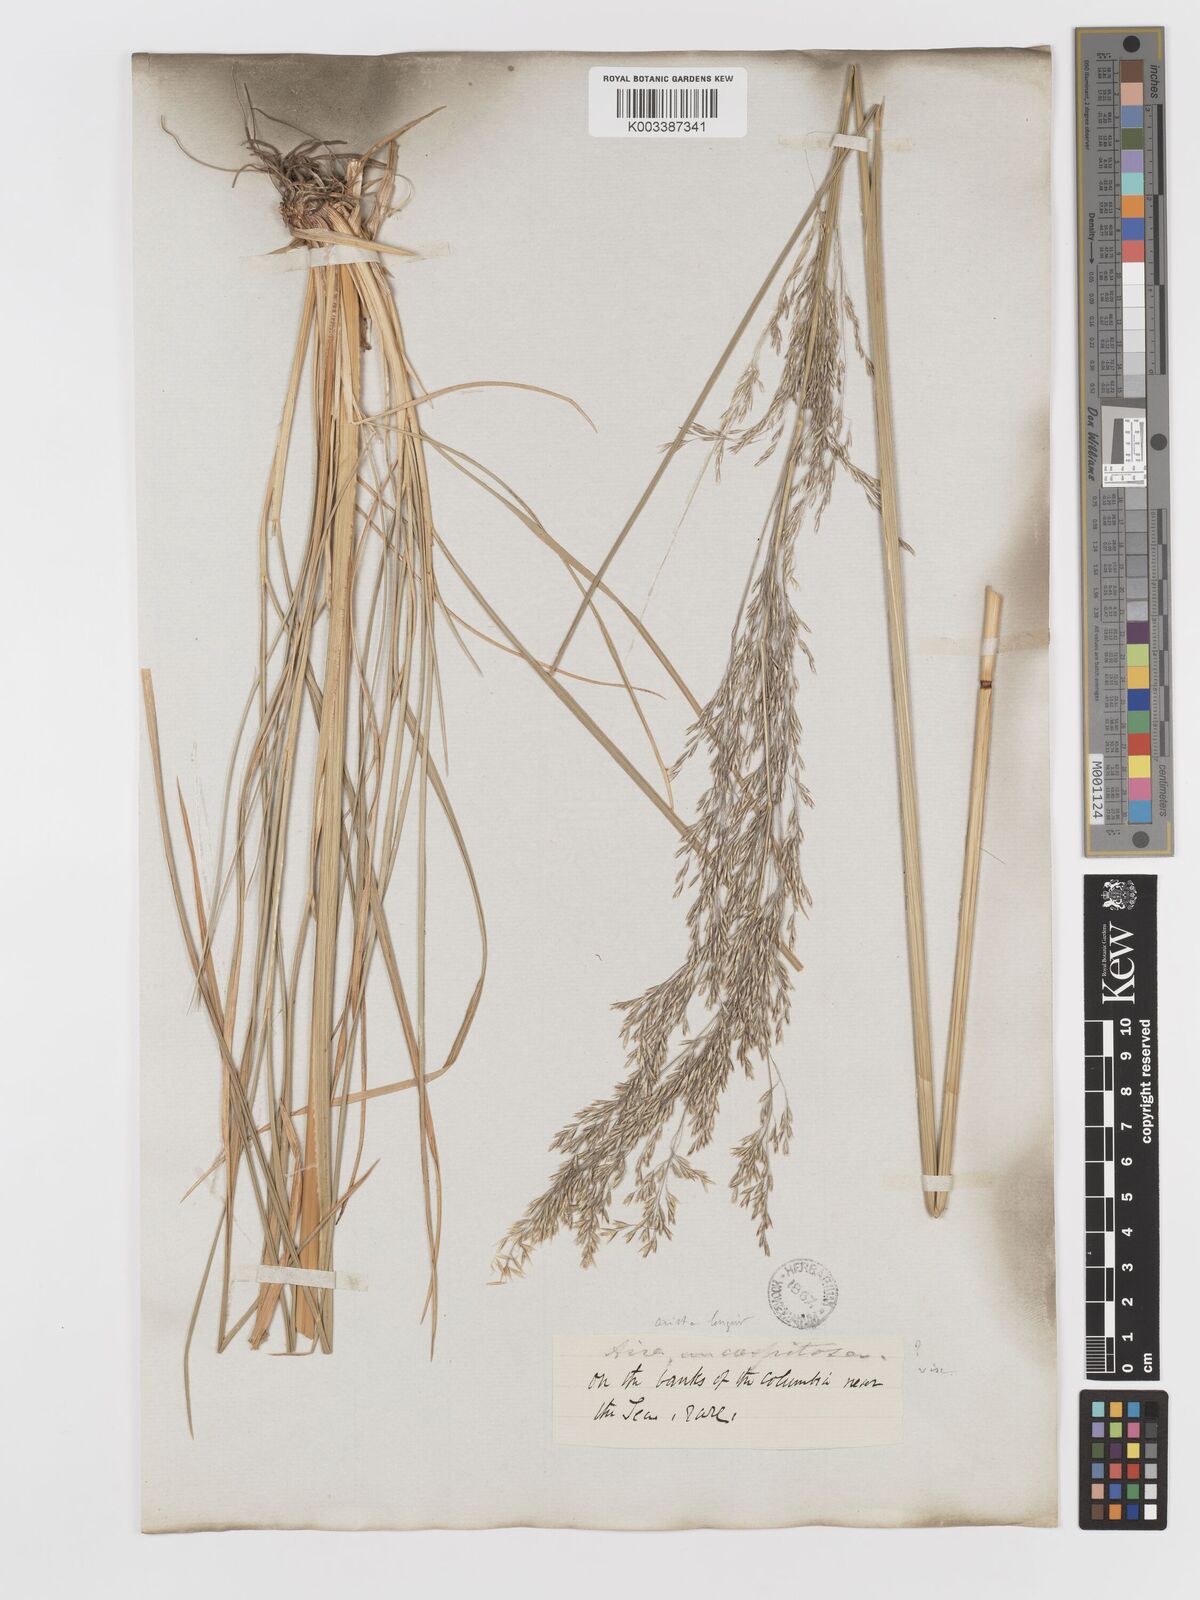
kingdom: Plantae
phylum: Tracheophyta
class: Liliopsida
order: Poales
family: Poaceae
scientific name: Poaceae
